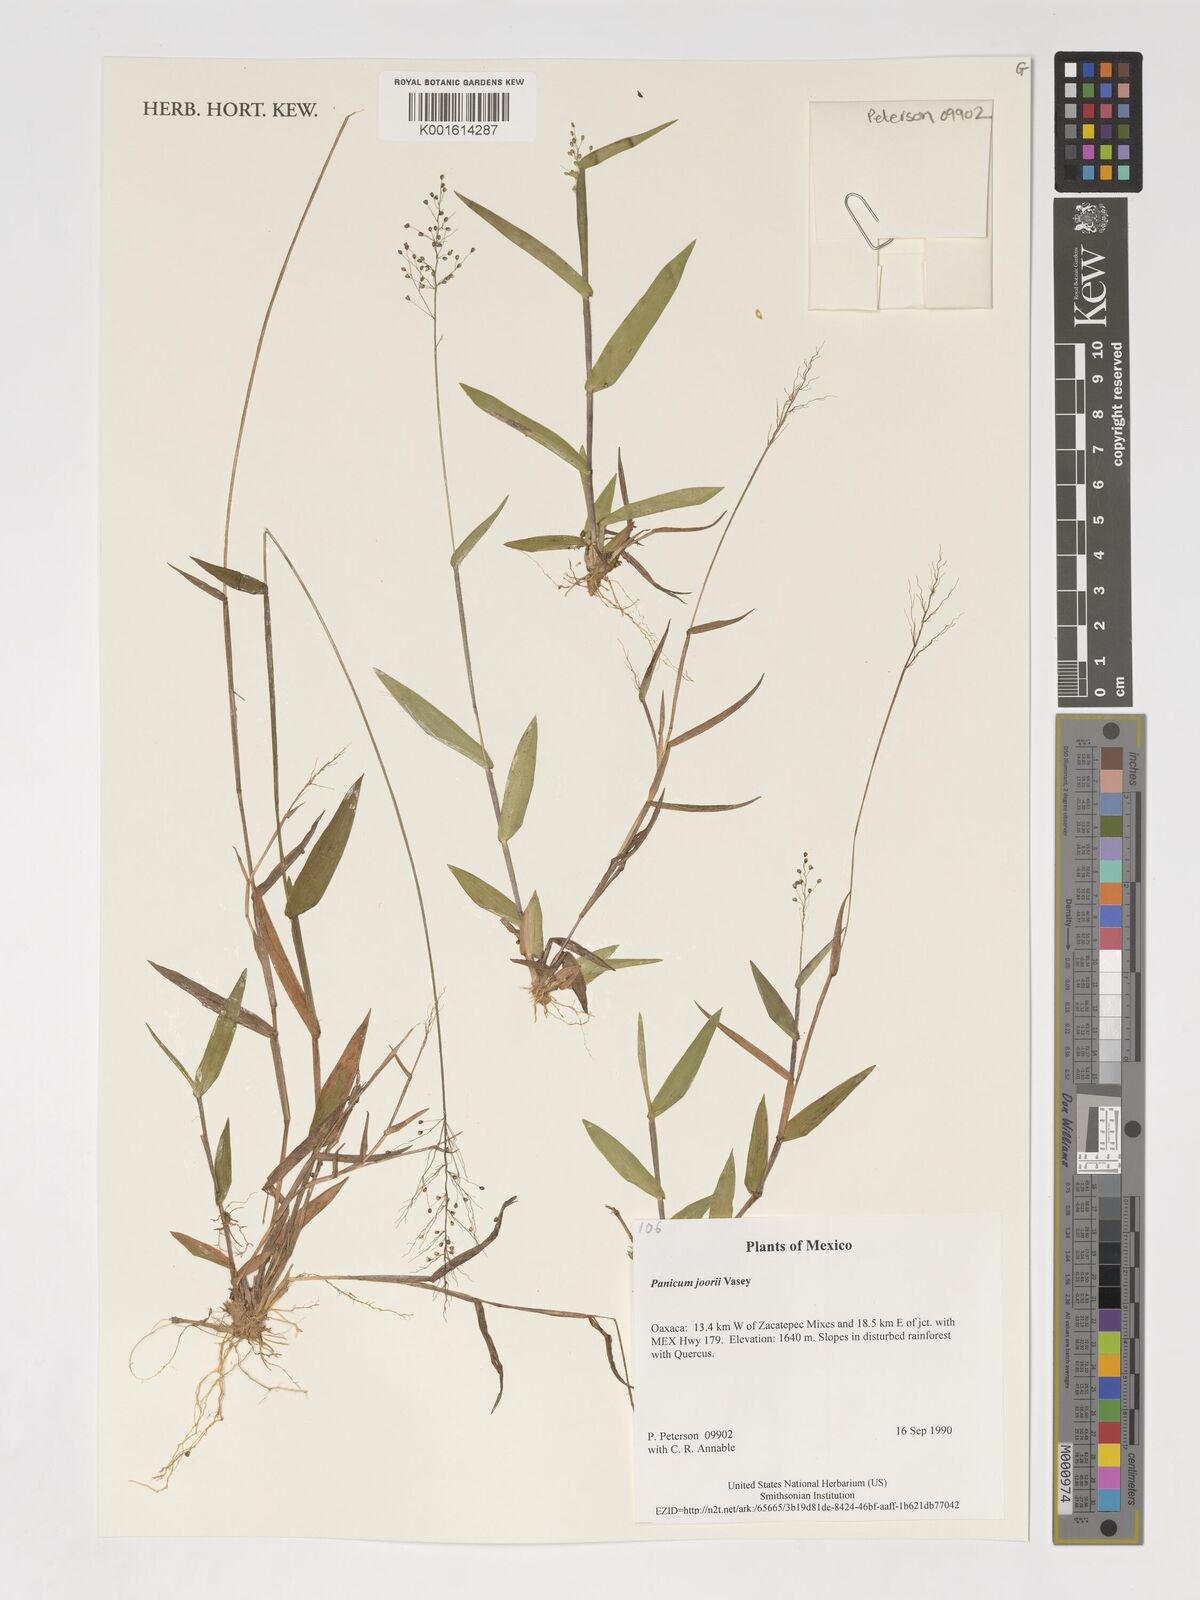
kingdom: Plantae
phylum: Tracheophyta
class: Liliopsida
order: Poales
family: Poaceae
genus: Dichanthelium
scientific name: Dichanthelium commutatum
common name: Variable witchgrass
